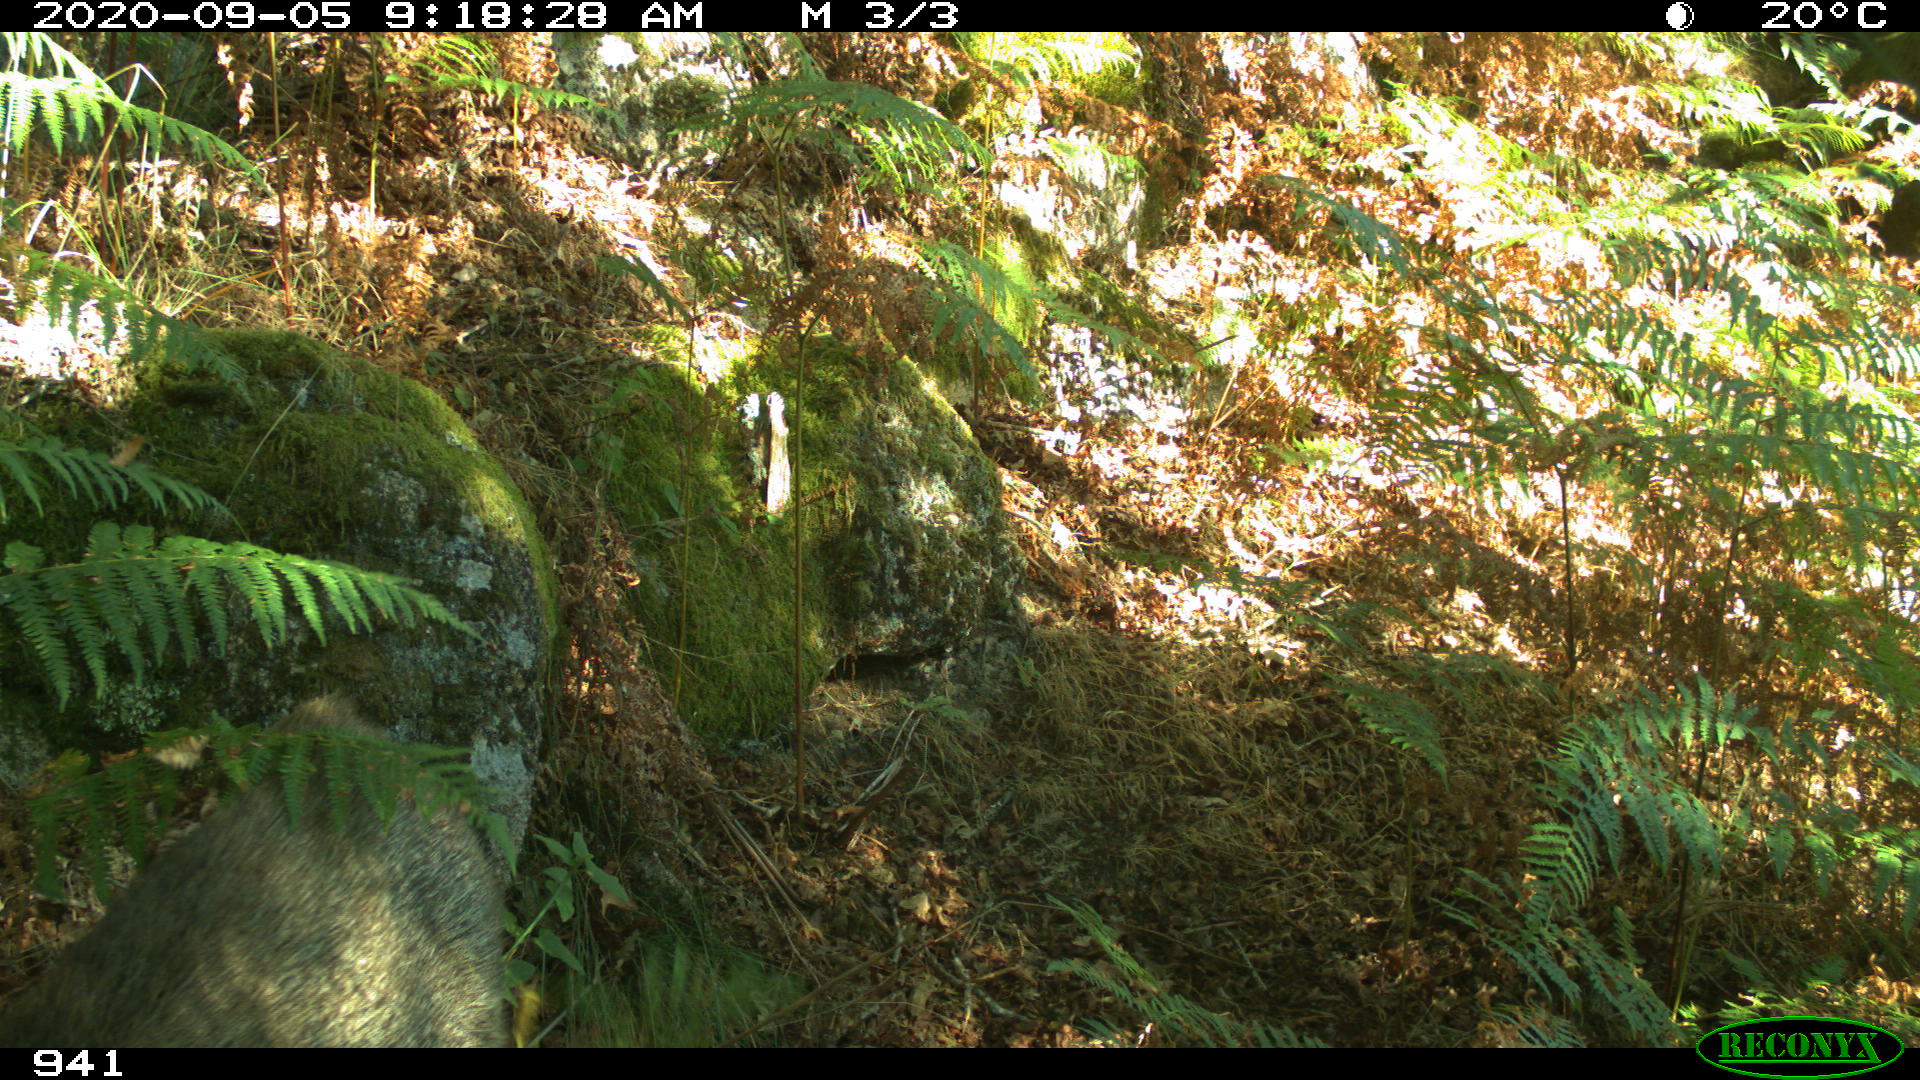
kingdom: Animalia
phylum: Chordata
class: Mammalia
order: Artiodactyla
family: Suidae
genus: Sus
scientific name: Sus scrofa
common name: Wild boar
